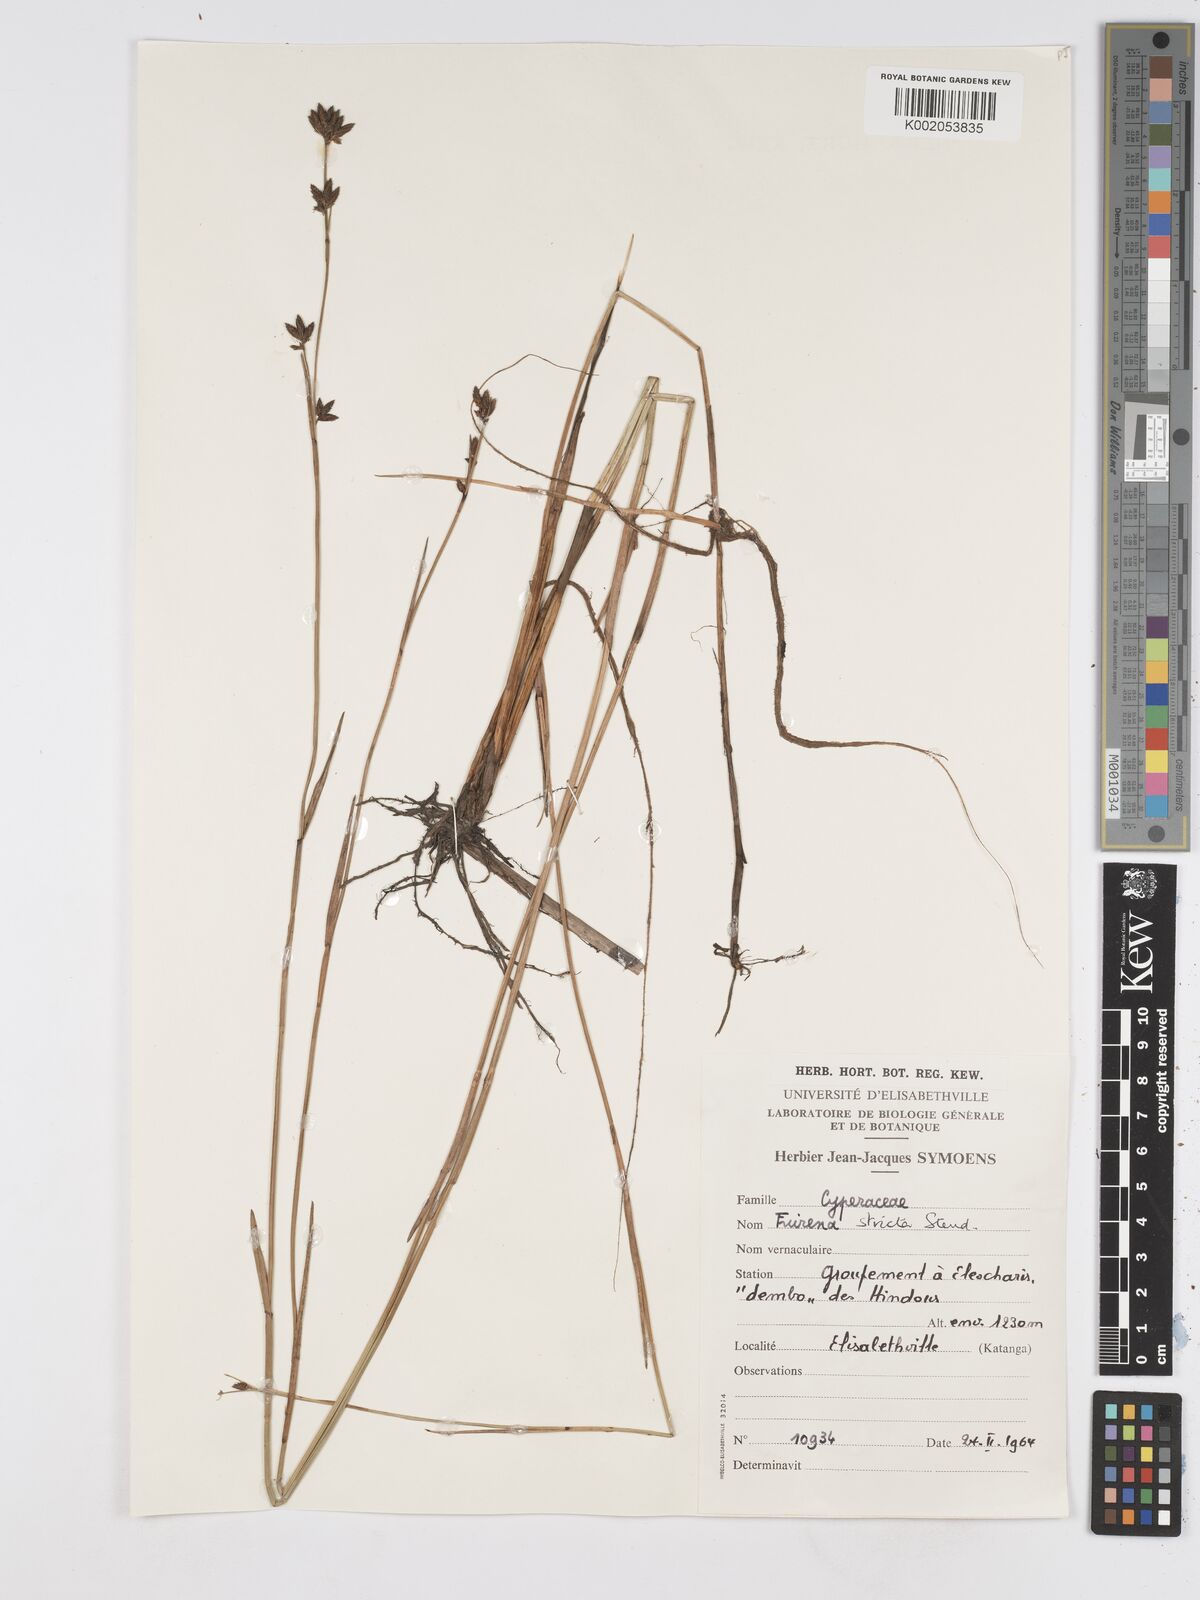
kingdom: Plantae
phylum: Tracheophyta
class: Liliopsida
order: Poales
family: Cyperaceae
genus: Fuirena
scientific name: Fuirena stricta
